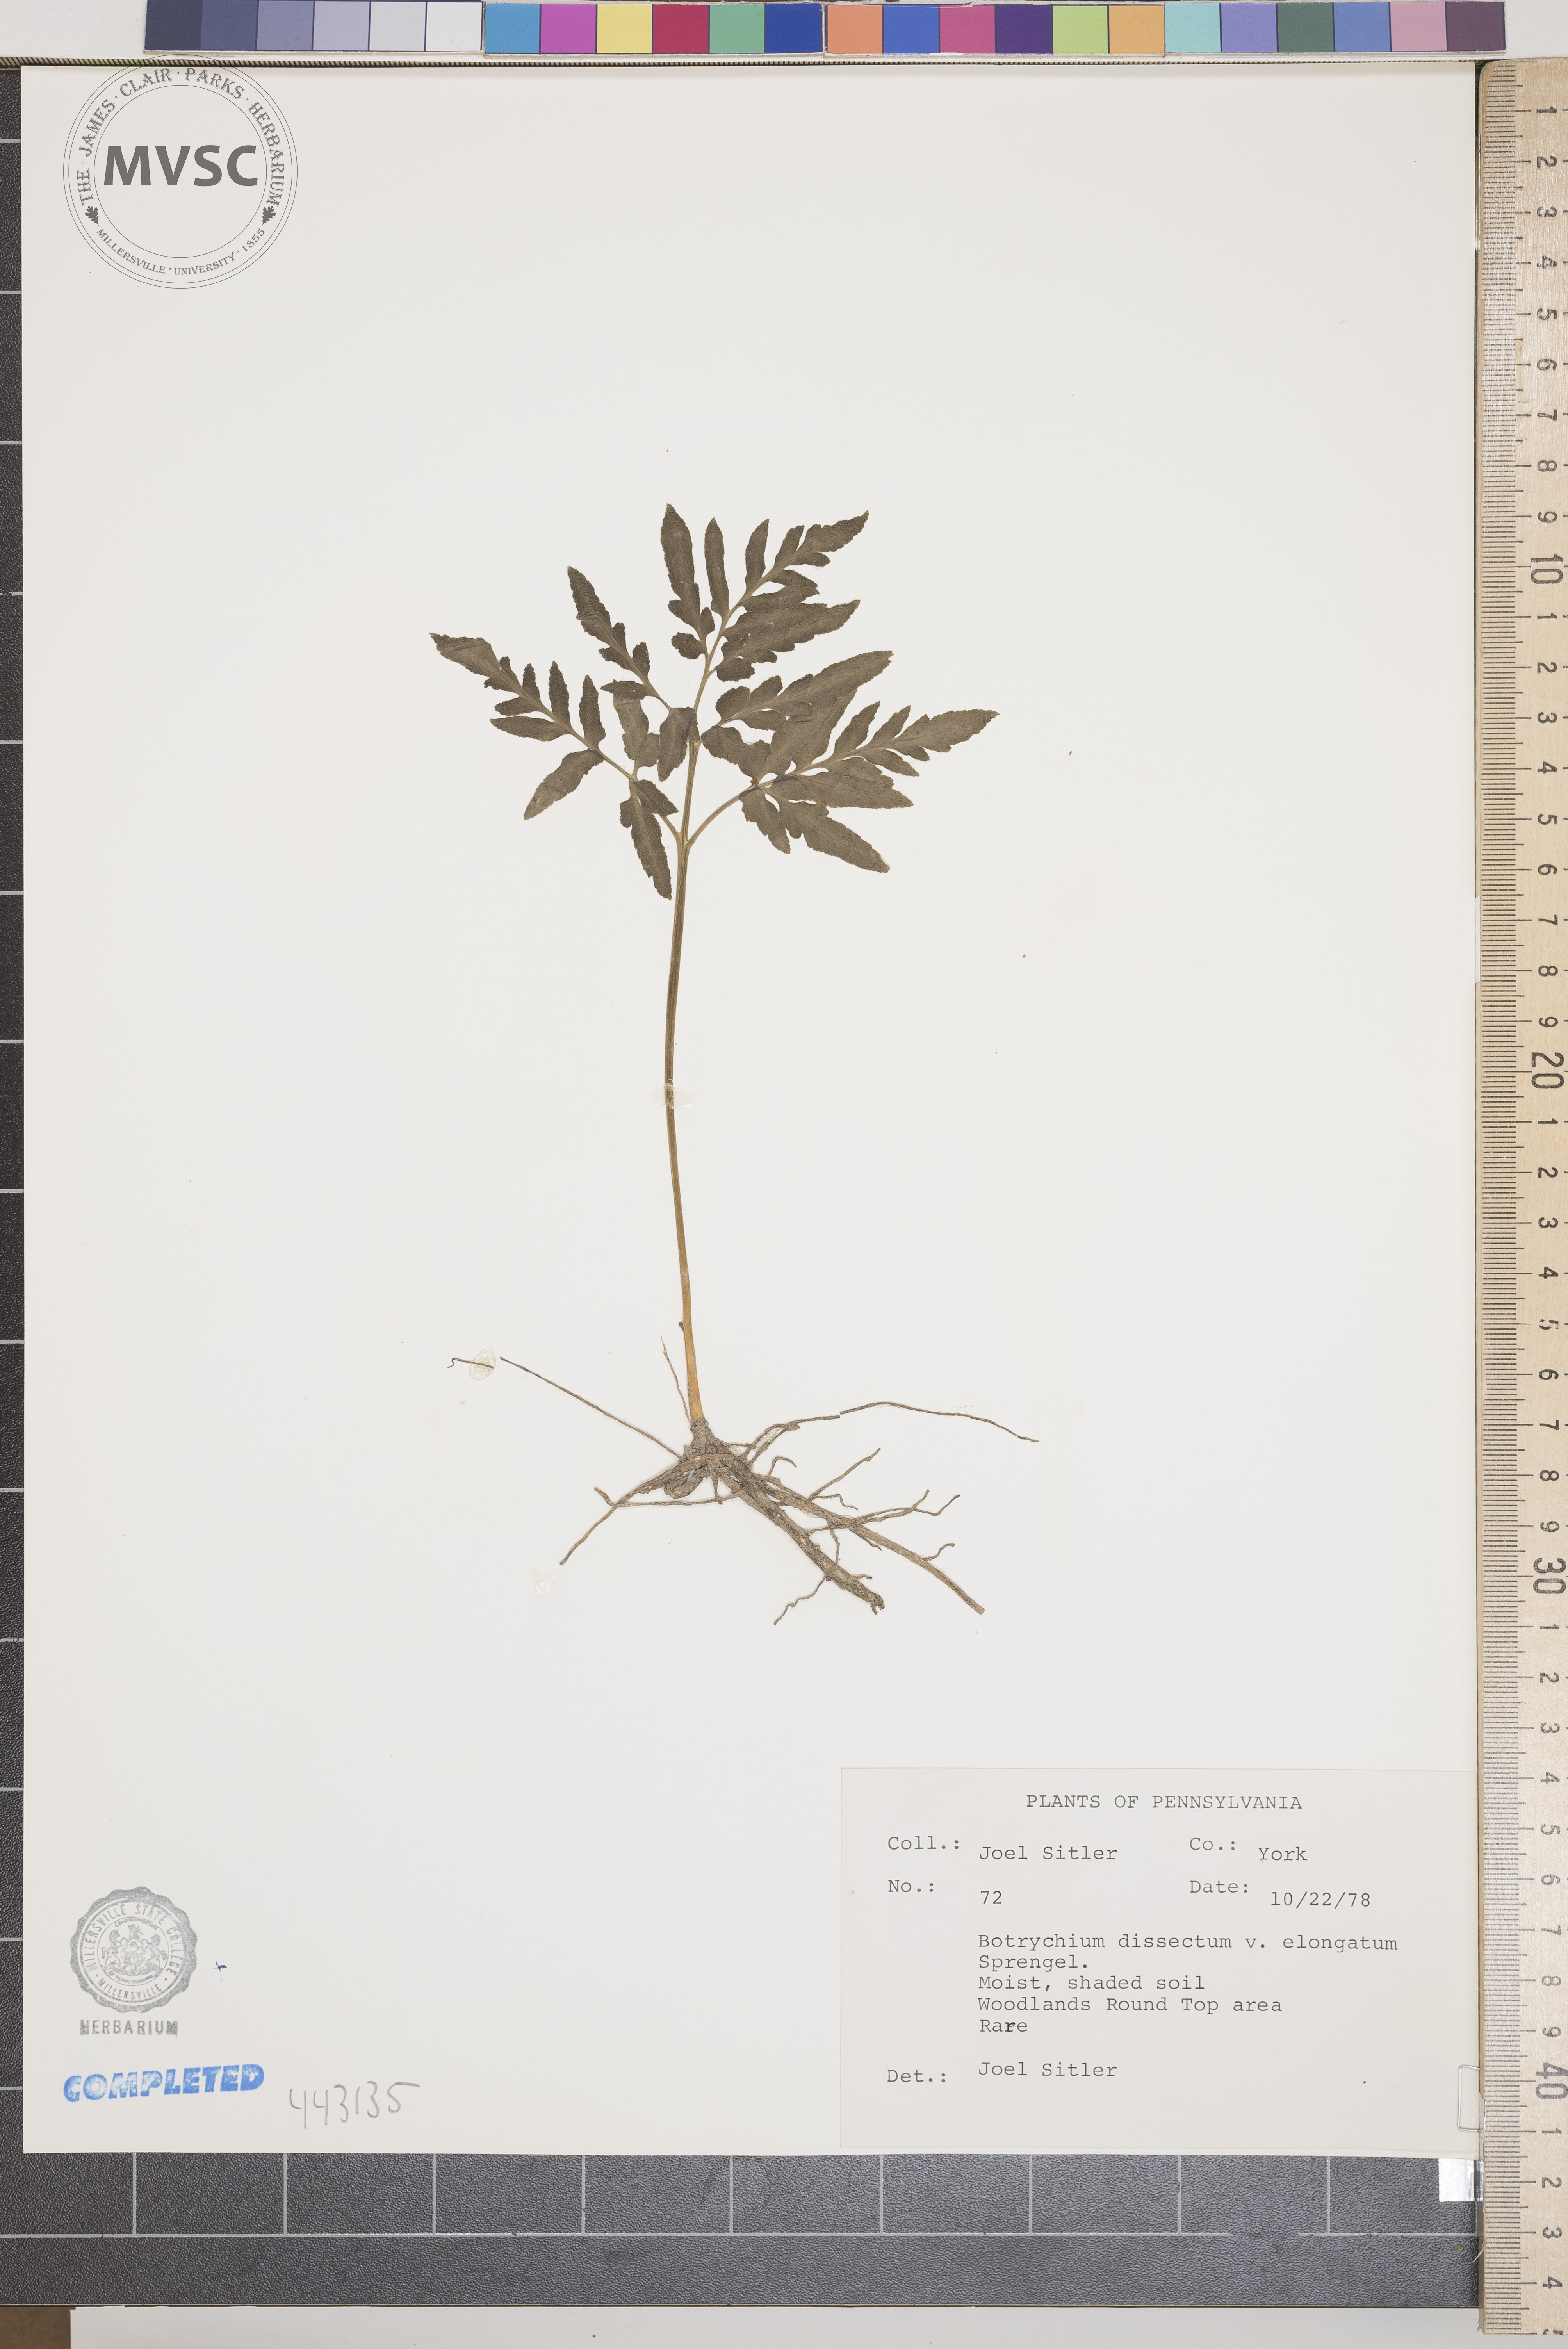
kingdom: Plantae
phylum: Tracheophyta
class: Polypodiopsida
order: Ophioglossales
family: Ophioglossaceae
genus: Sceptridium
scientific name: Sceptridium dissectum
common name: Cut-leaved grapefern
